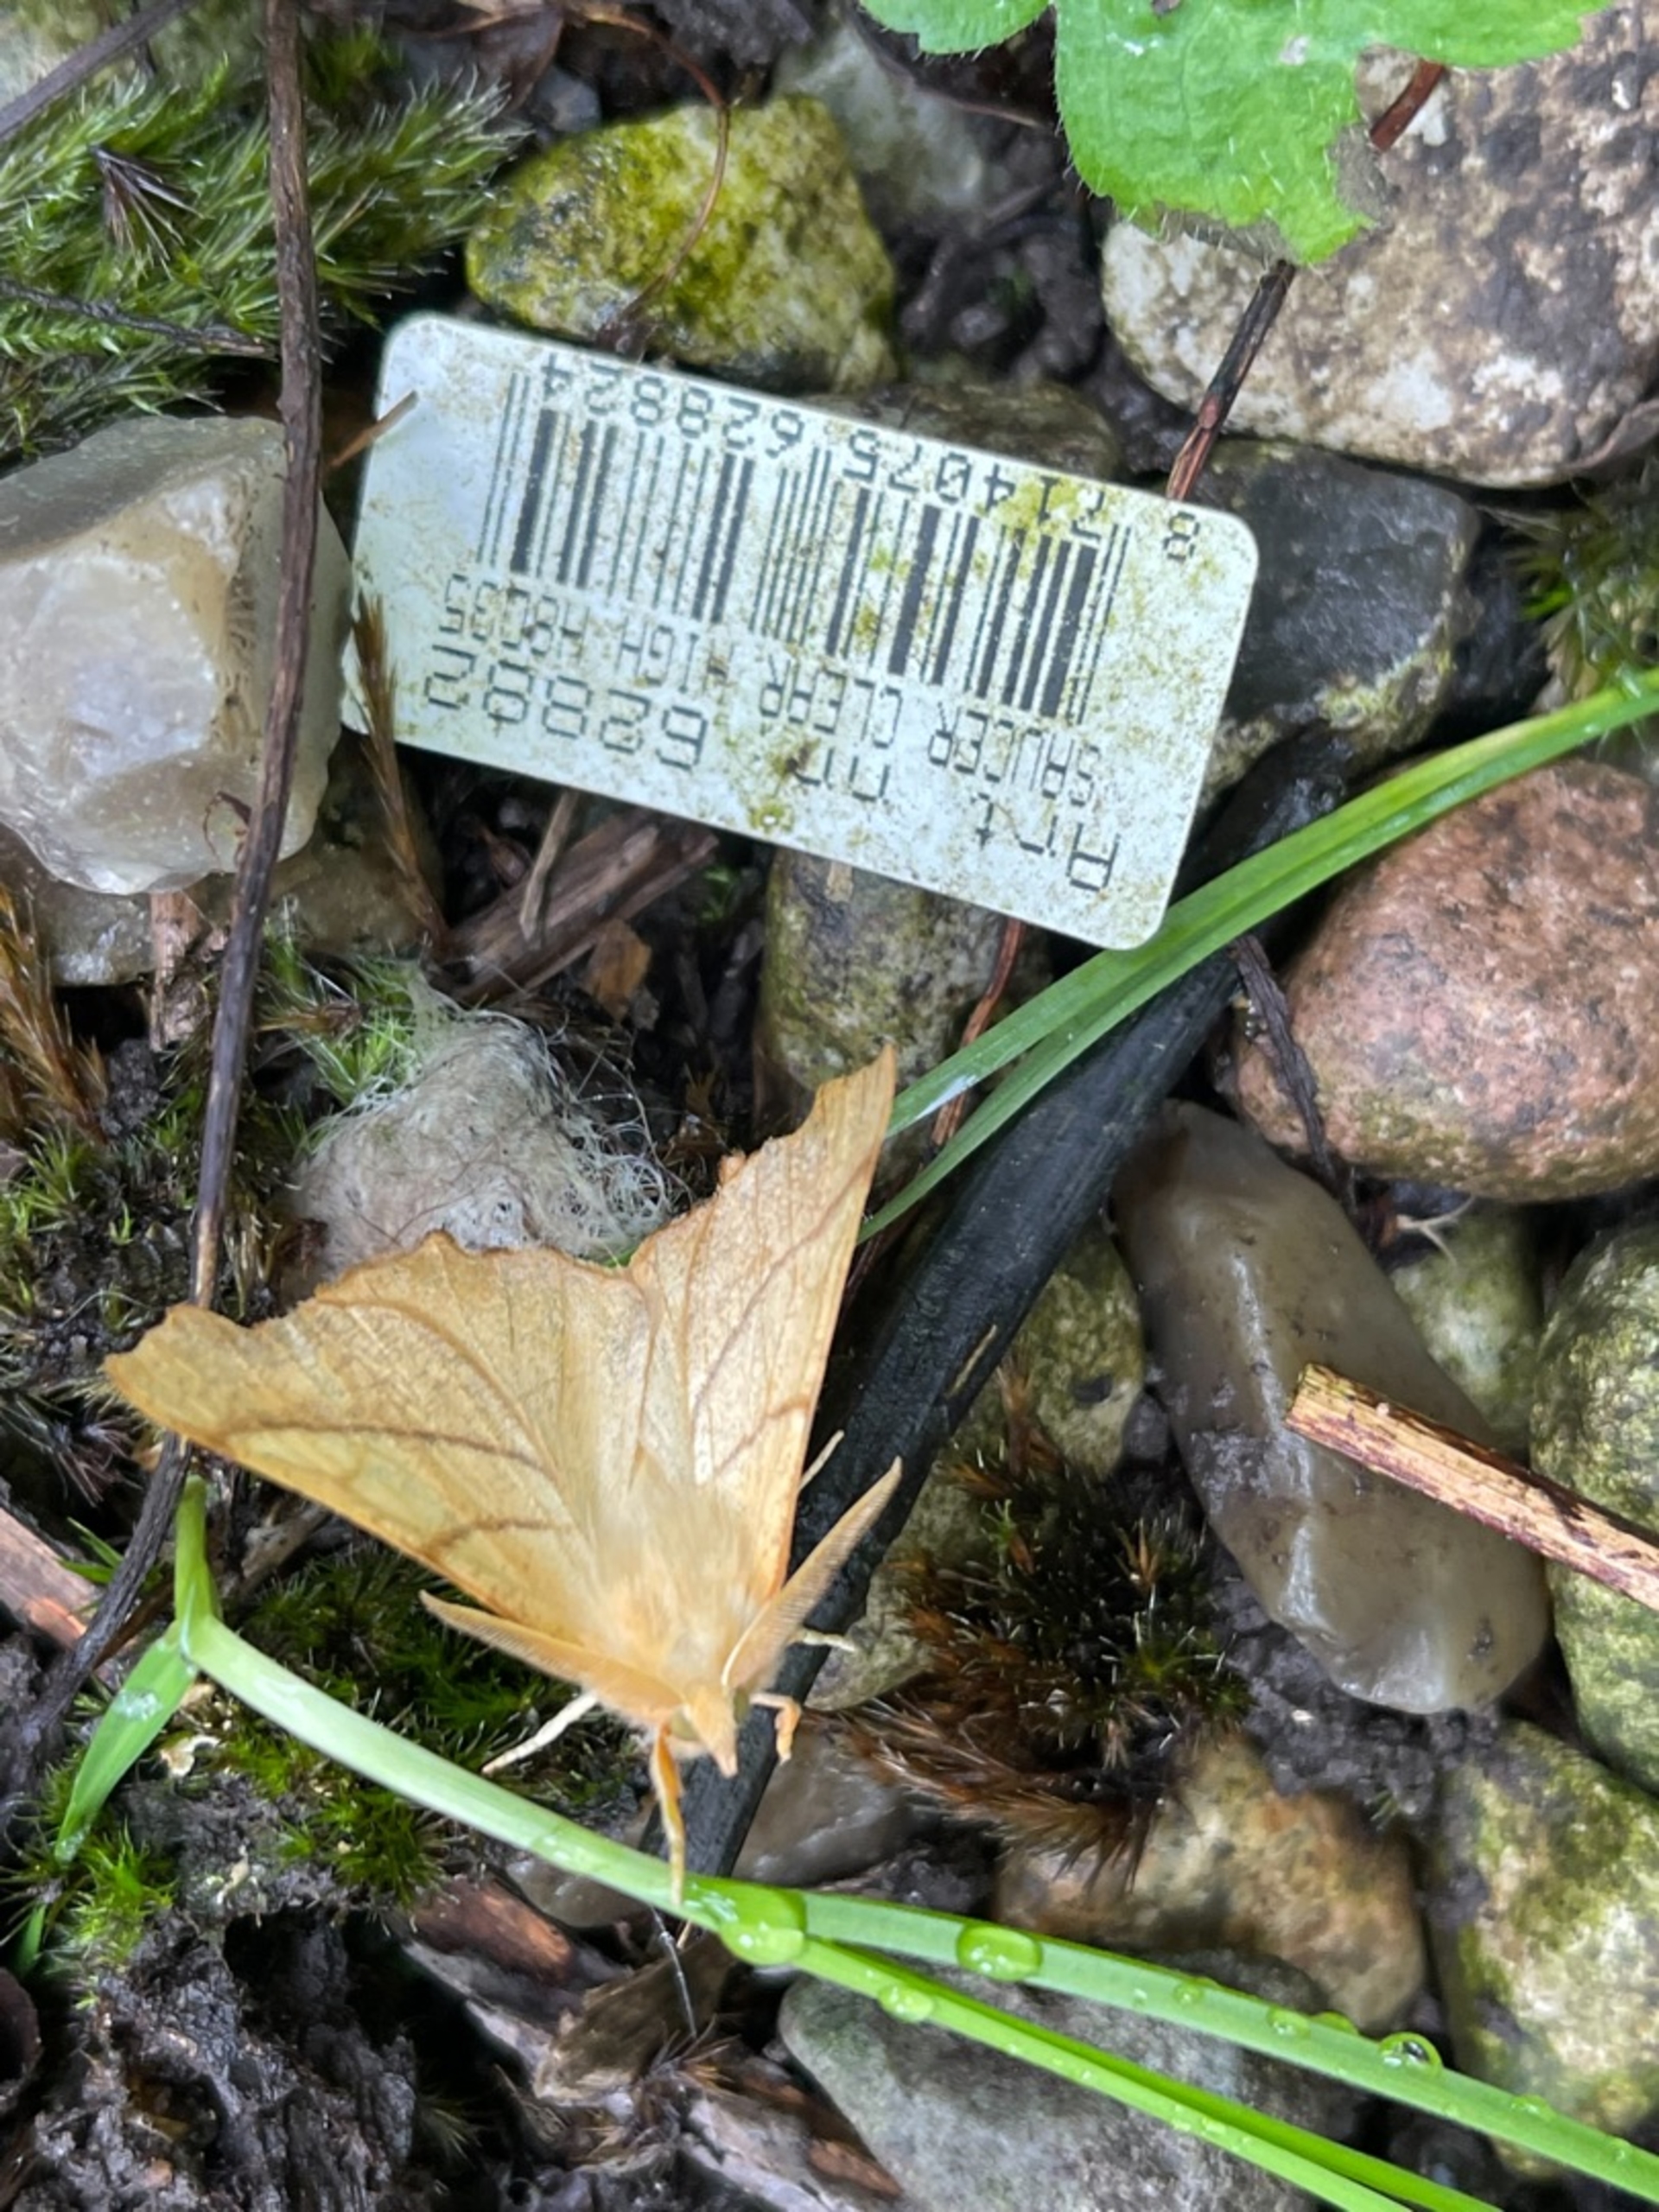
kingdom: Animalia
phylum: Arthropoda
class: Insecta
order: Lepidoptera
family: Geometridae
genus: Ennomos
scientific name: Ennomos erosaria
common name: Ege-tandmåler
